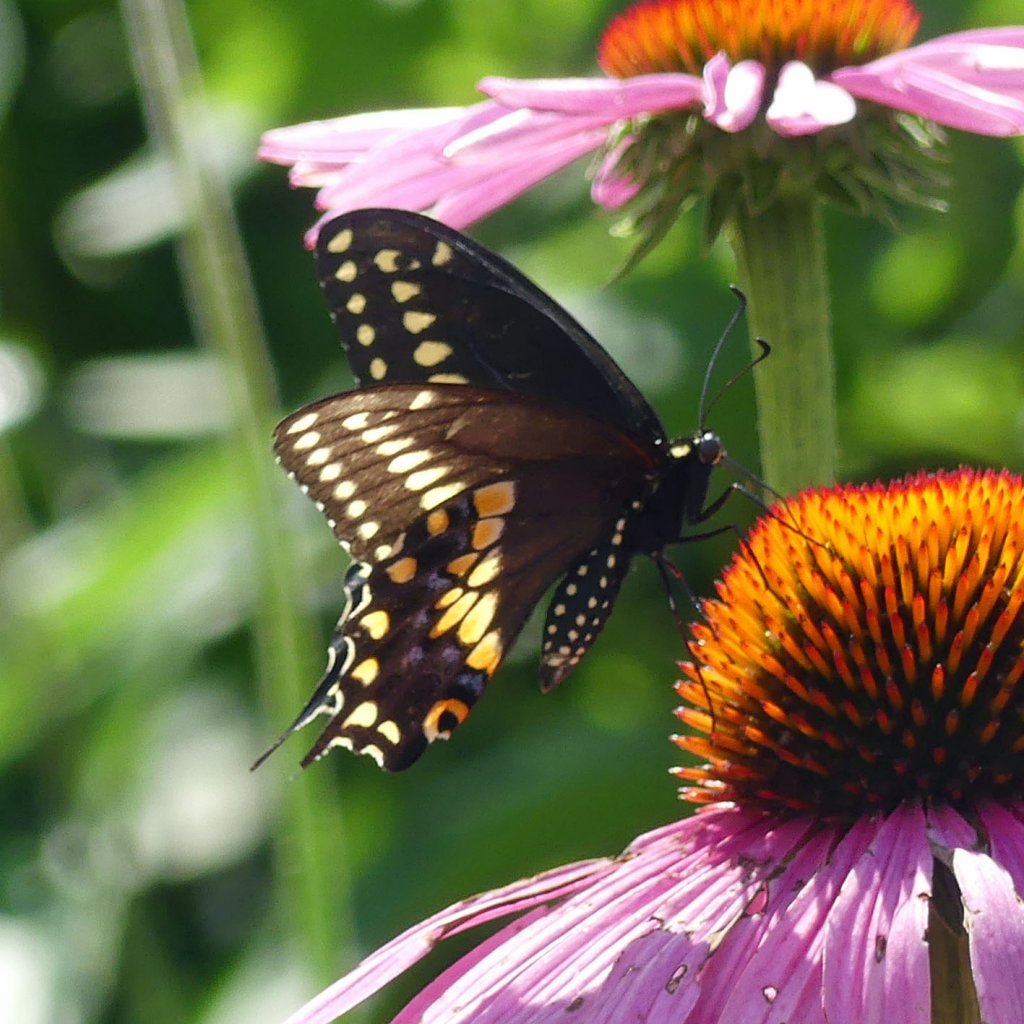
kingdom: Animalia
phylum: Arthropoda
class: Insecta
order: Lepidoptera
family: Papilionidae
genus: Papilio
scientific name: Papilio polyxenes
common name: Black Swallowtail
